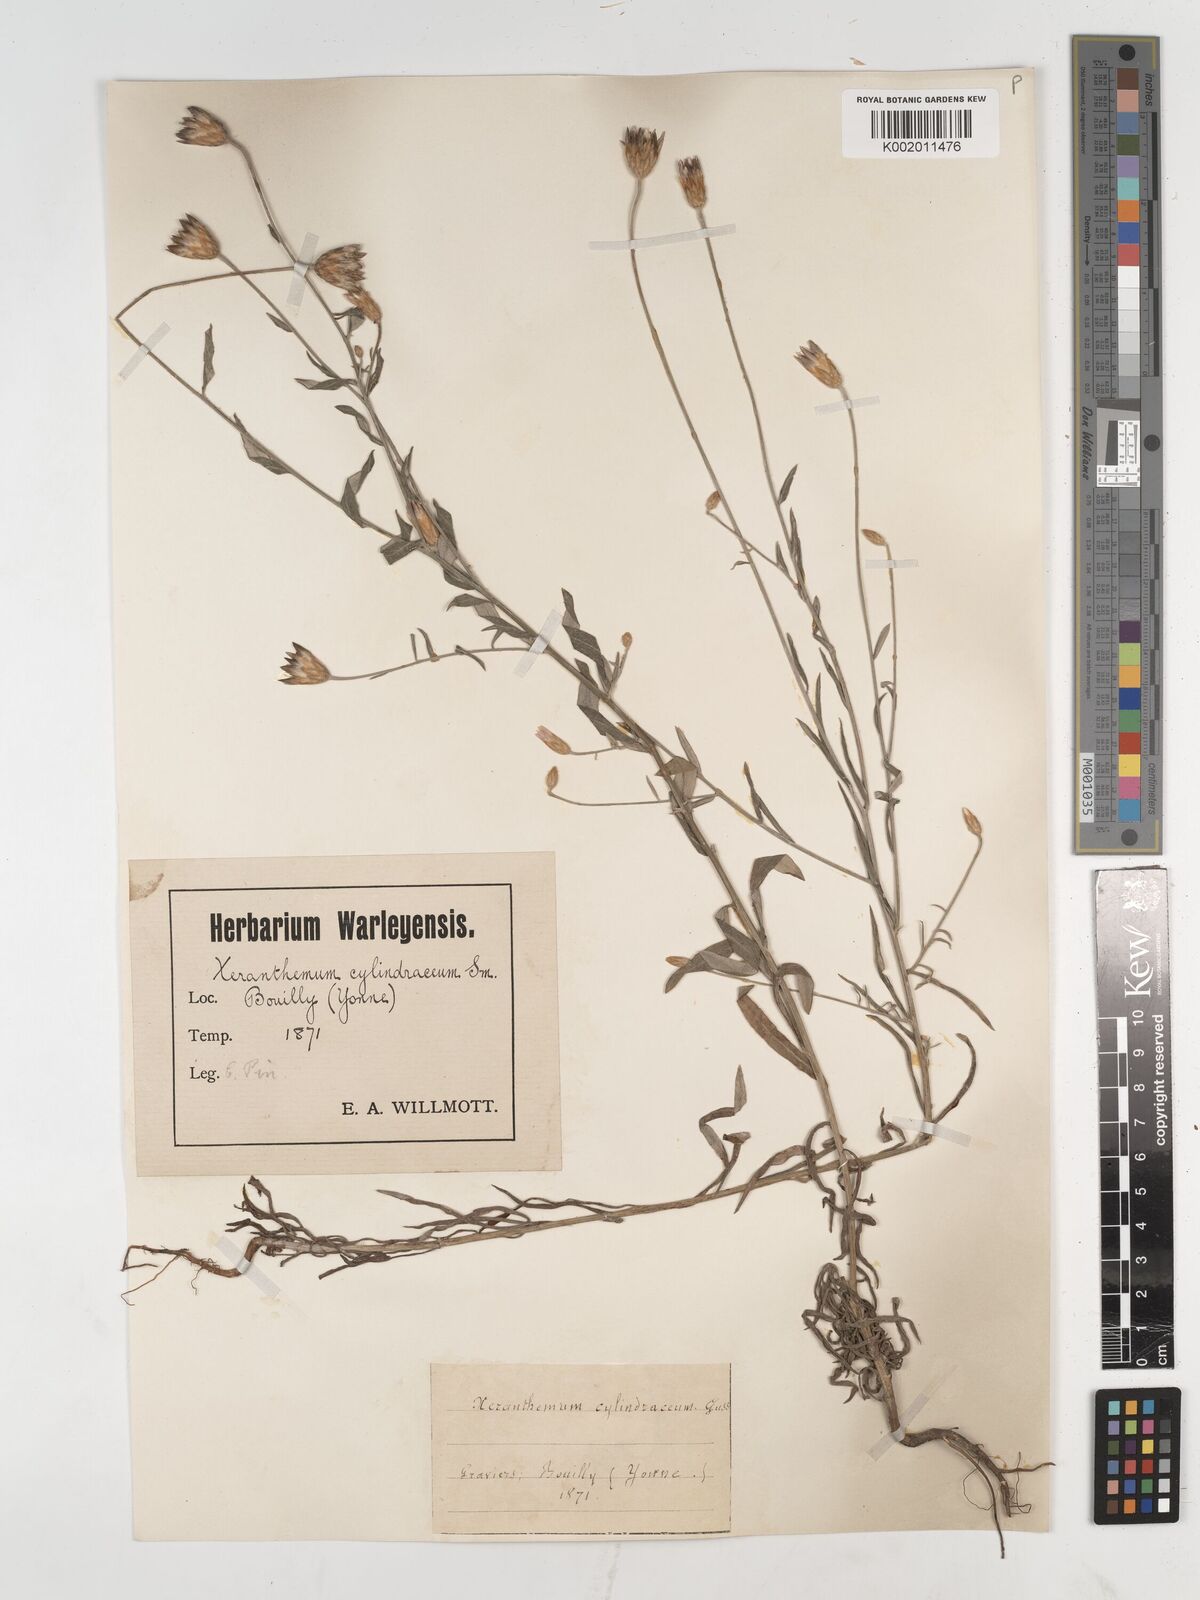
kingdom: Plantae
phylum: Tracheophyta
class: Magnoliopsida
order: Asterales
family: Asteraceae
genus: Xeranthemum
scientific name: Xeranthemum cylindraceum
